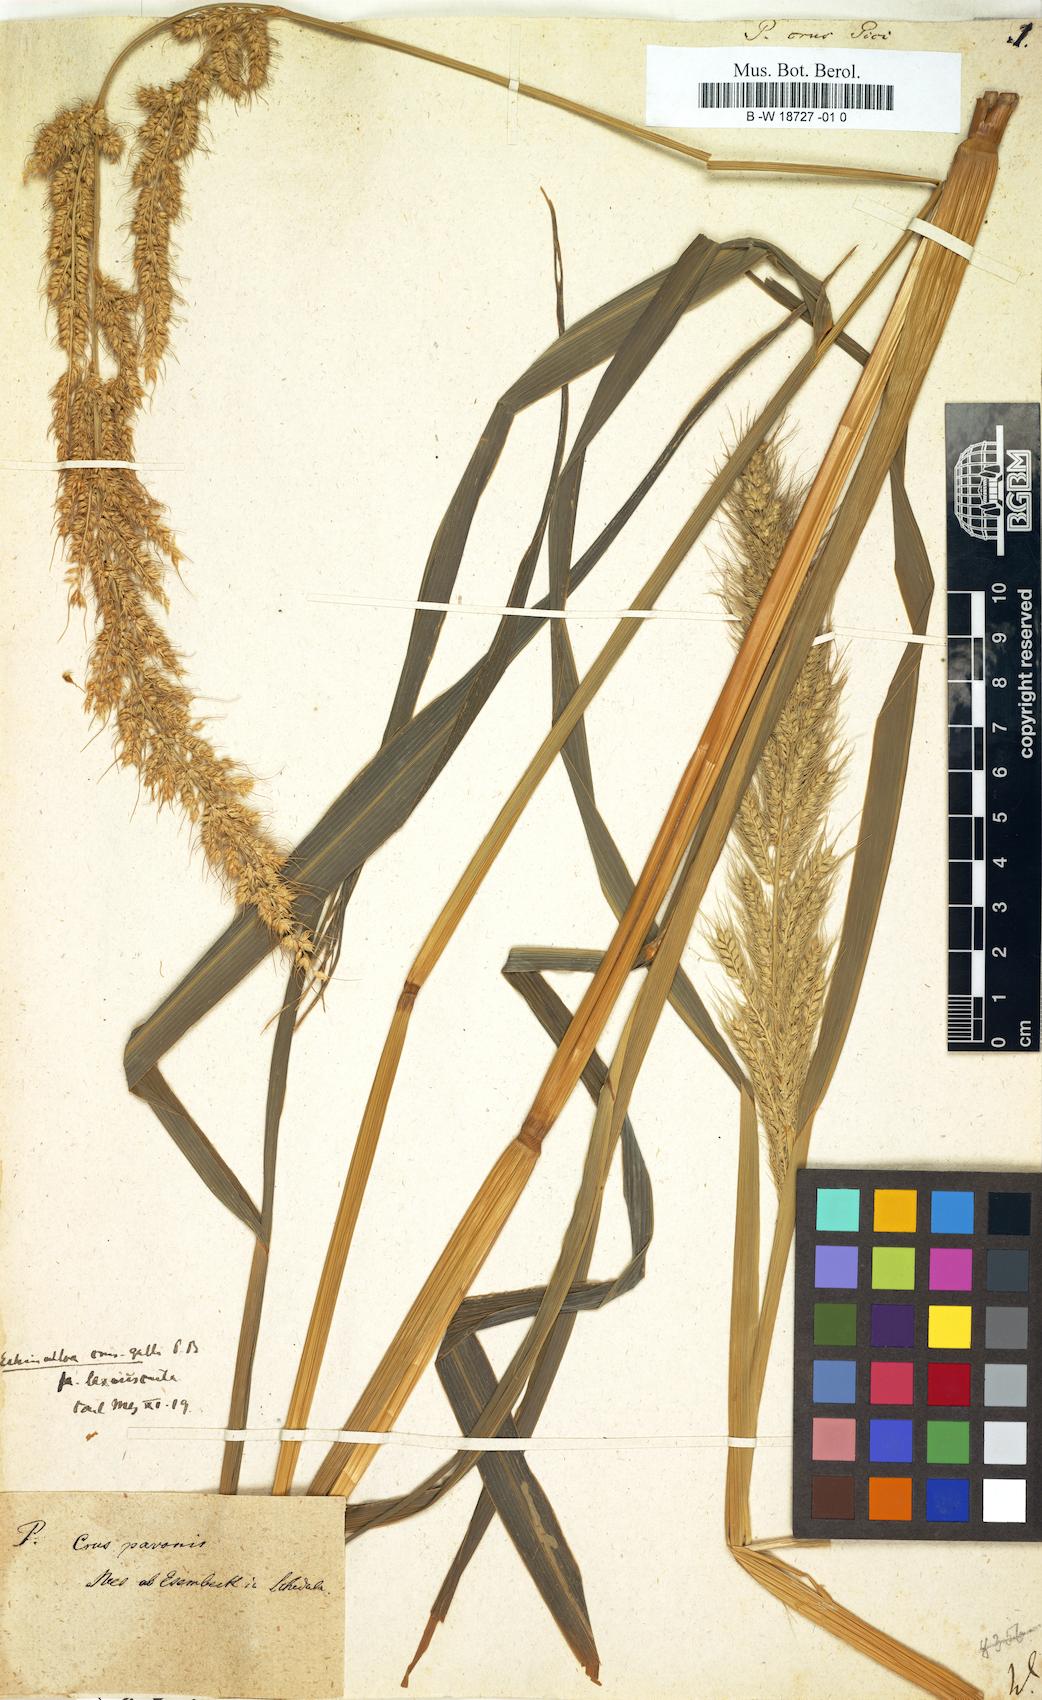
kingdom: Plantae
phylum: Tracheophyta
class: Liliopsida
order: Poales
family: Poaceae
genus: Echinochloa
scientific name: Echinochloa crus-galli
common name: Cockspur
